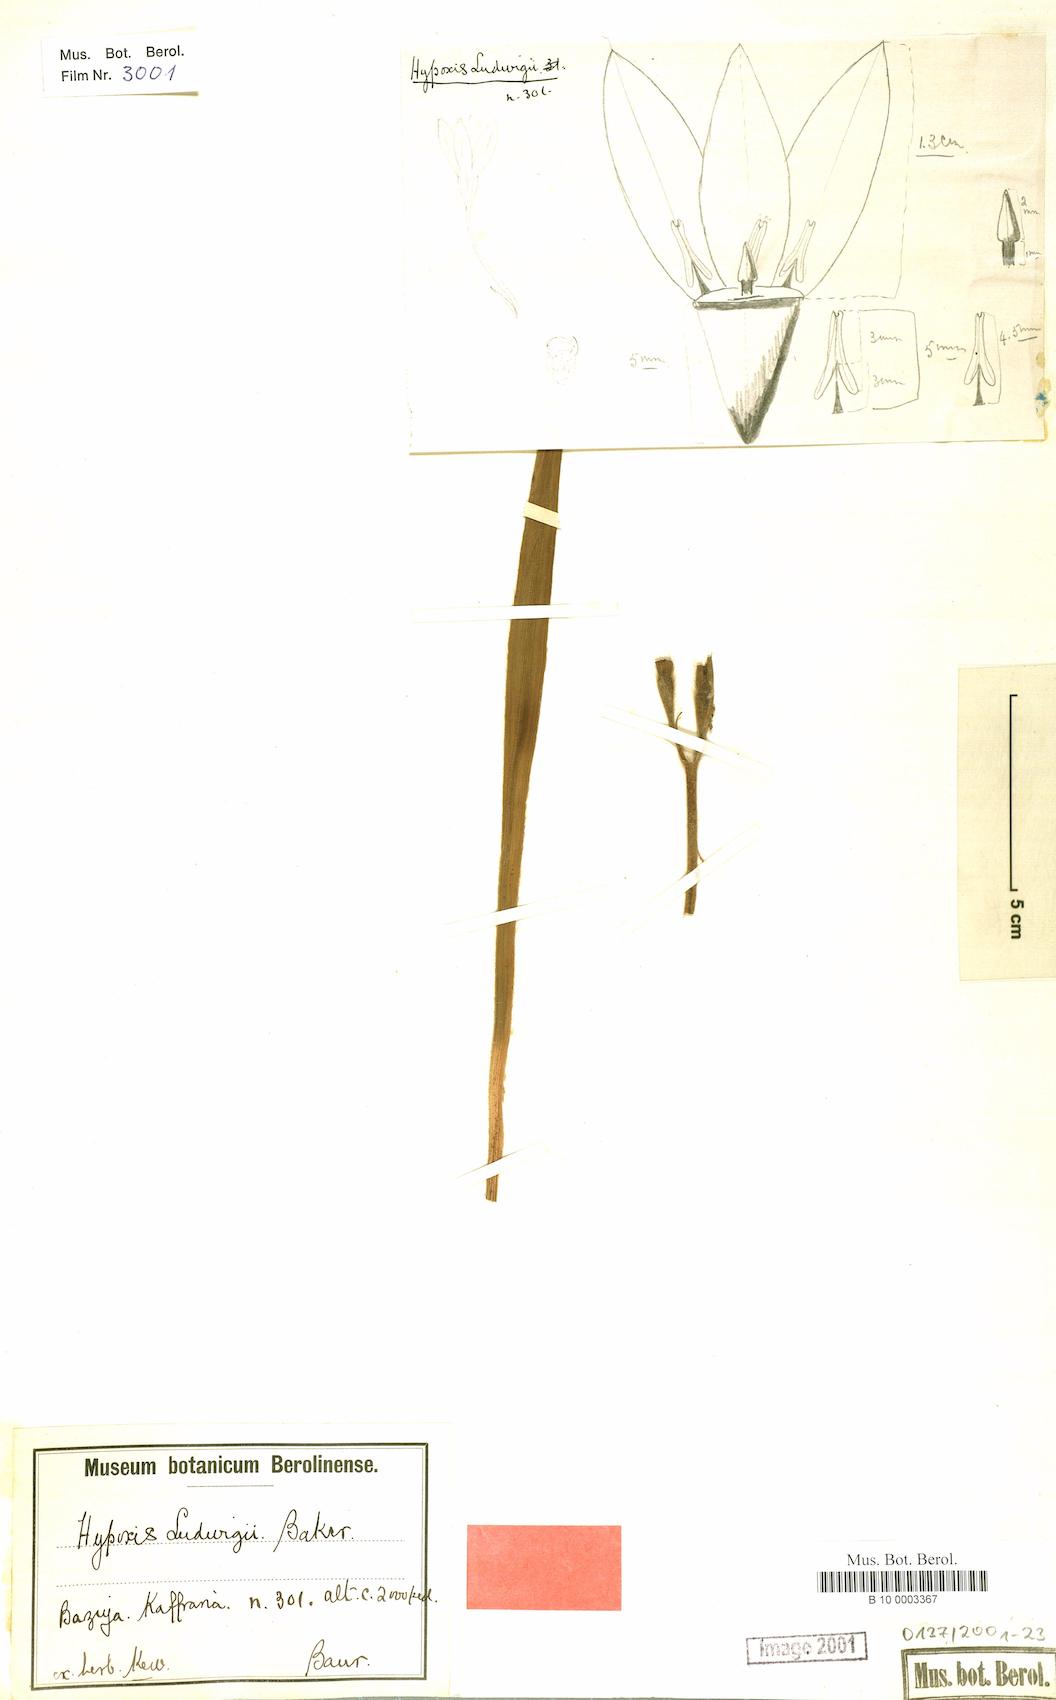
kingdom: Plantae
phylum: Tracheophyta
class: Liliopsida
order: Asparagales
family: Hypoxidaceae
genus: Hypoxis
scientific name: Hypoxis ludwigii
